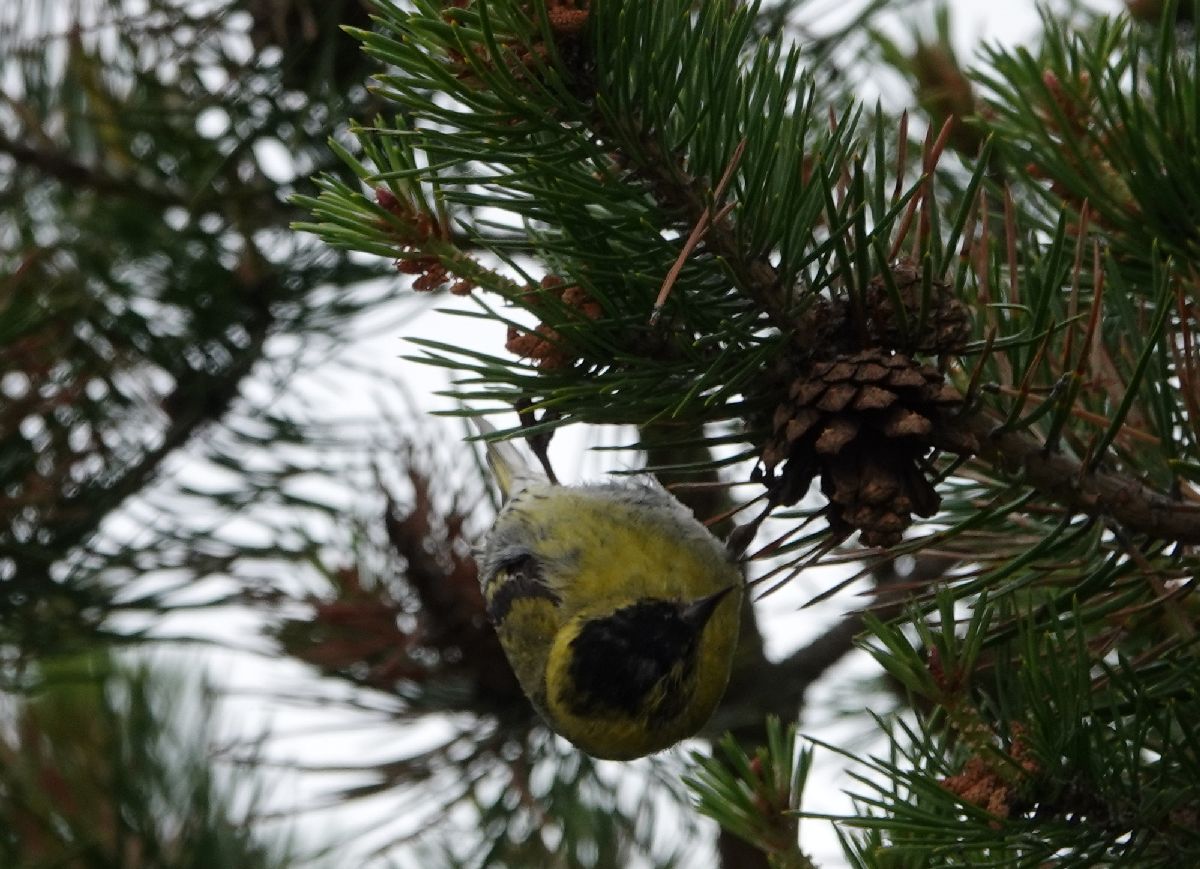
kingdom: Animalia
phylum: Chordata
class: Aves
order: Passeriformes
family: Fringillidae
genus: Spinus
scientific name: Spinus spinus
